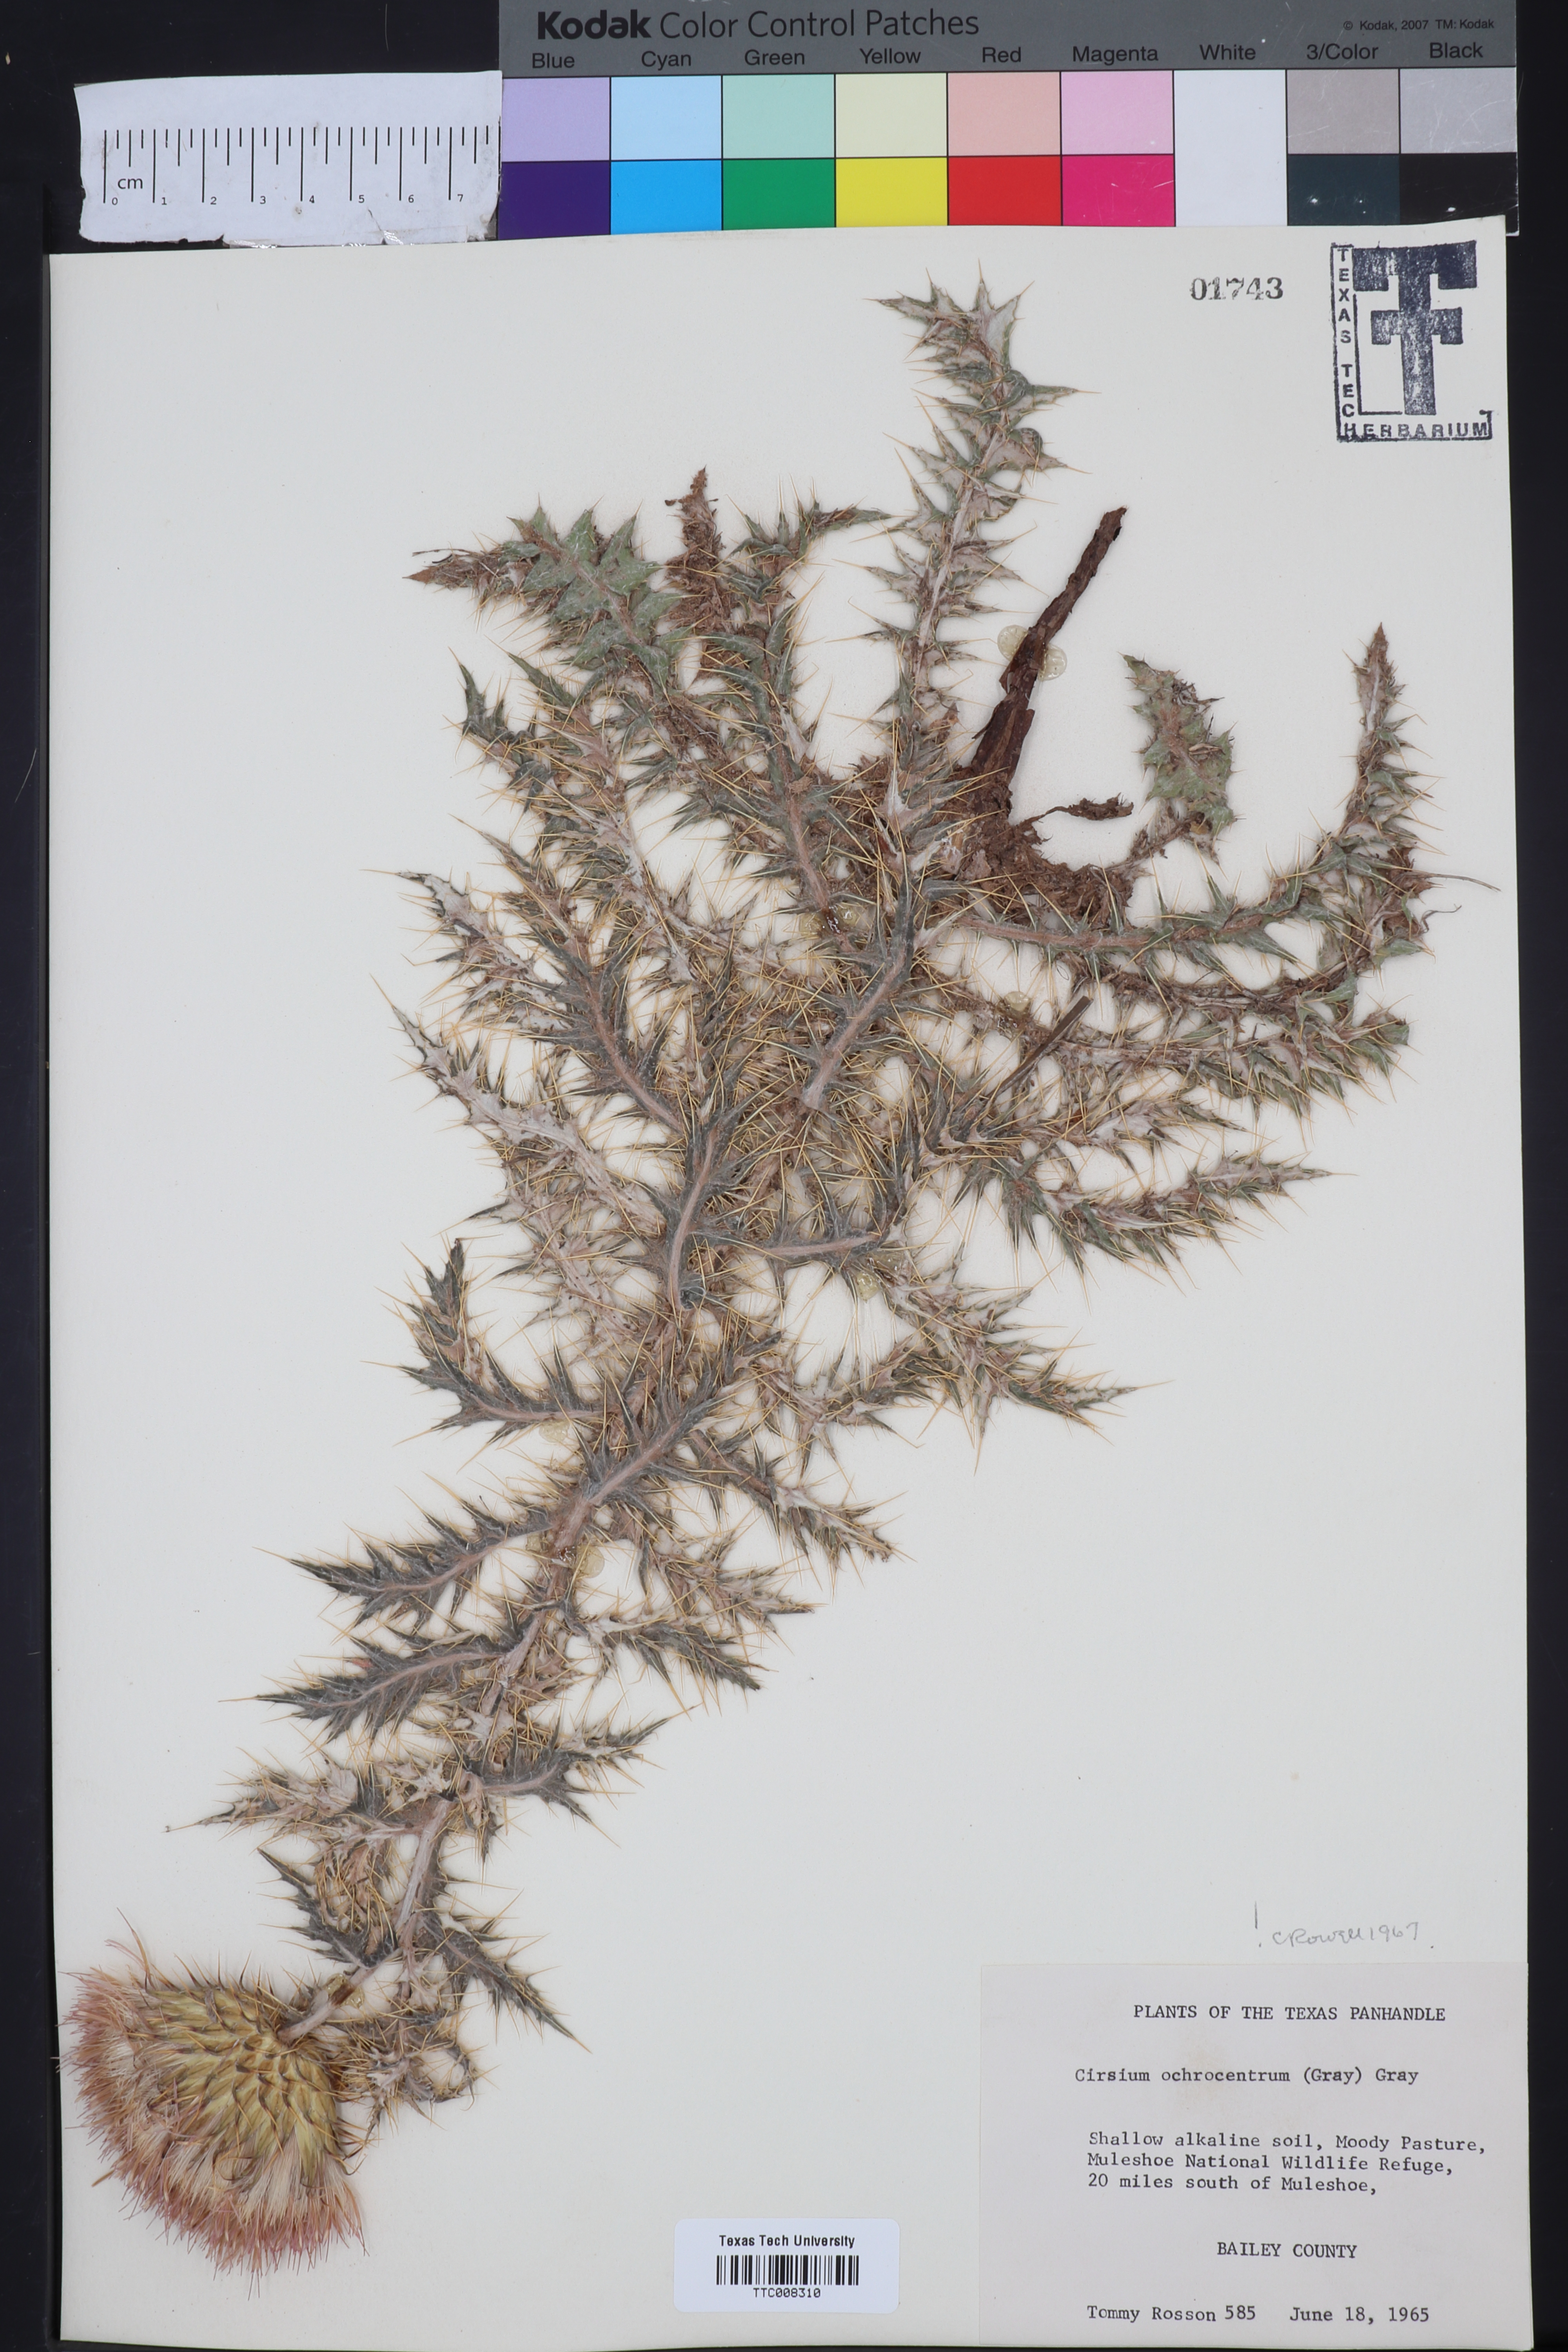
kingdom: Plantae
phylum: Tracheophyta
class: Magnoliopsida
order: Asterales
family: Asteraceae
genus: Cirsium
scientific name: Cirsium ochrocentrum
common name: Yellow-spine thistle
